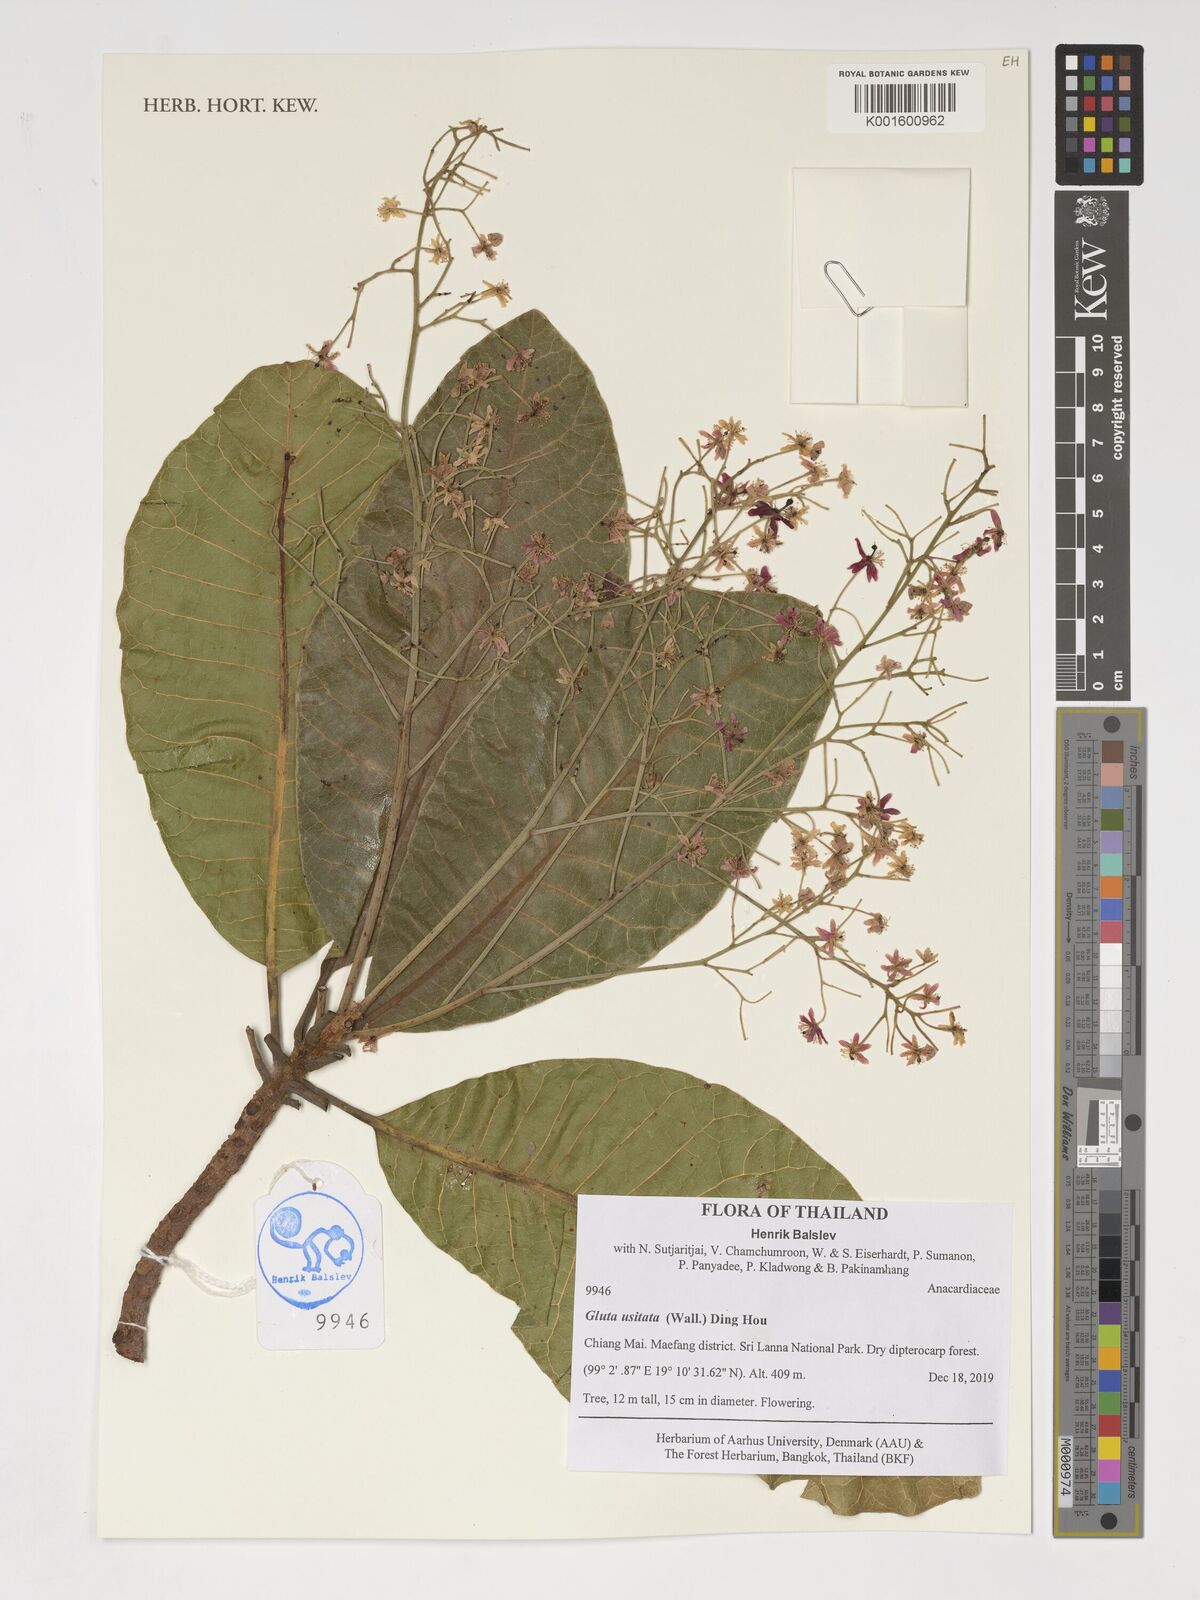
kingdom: Plantae
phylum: Tracheophyta
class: Magnoliopsida
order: Sapindales
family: Anacardiaceae
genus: Gluta
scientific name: Gluta usitata
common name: Black varnishtree
